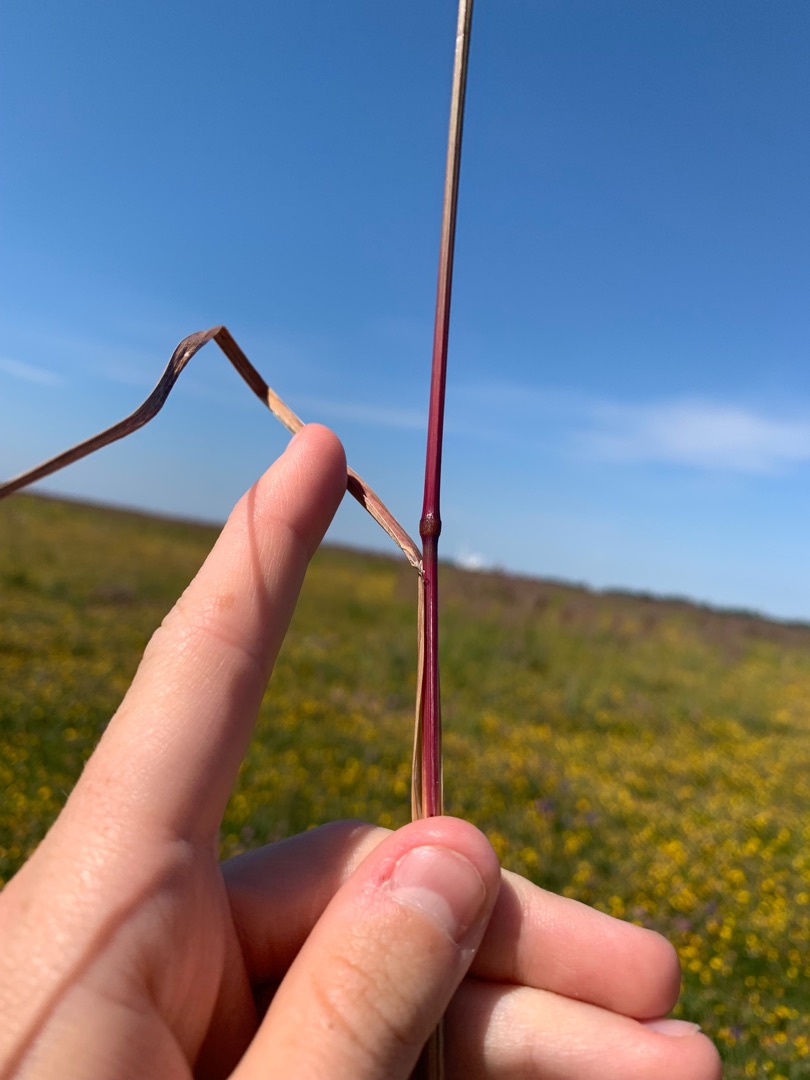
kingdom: Plantae
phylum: Tracheophyta
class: Liliopsida
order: Poales
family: Poaceae
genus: Dactylis
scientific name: Dactylis glomerata
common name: Almindelig hundegræs
